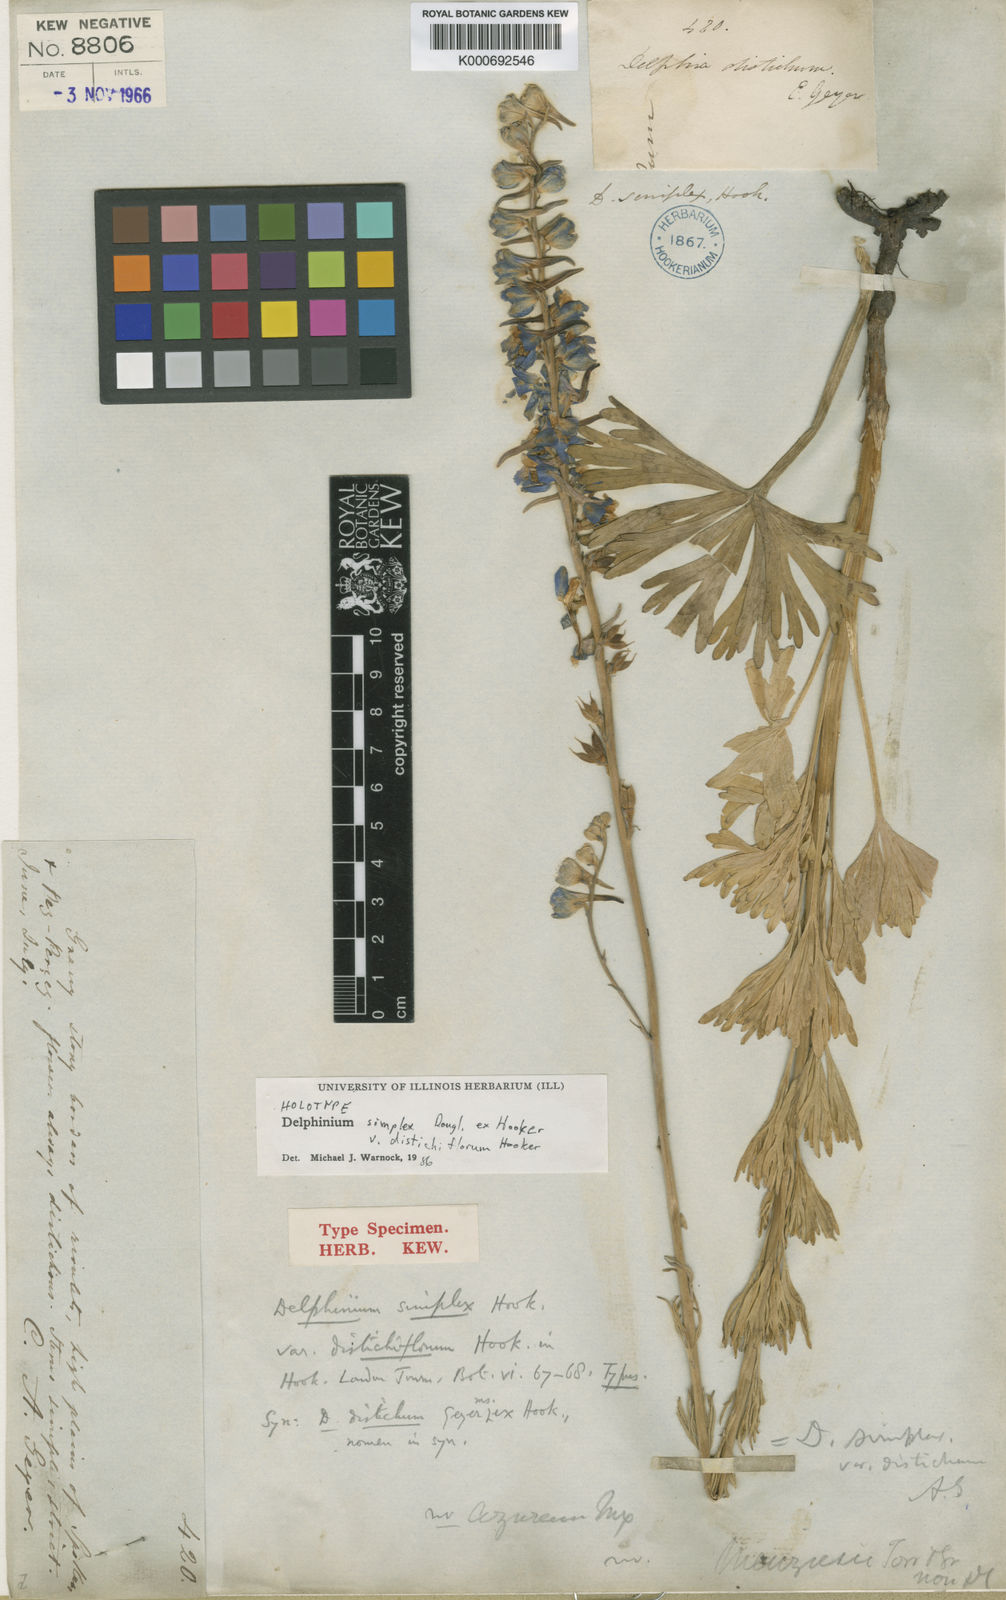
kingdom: Plantae
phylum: Tracheophyta
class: Magnoliopsida
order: Ranunculales
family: Ranunculaceae
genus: Delphinium
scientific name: Delphinium
